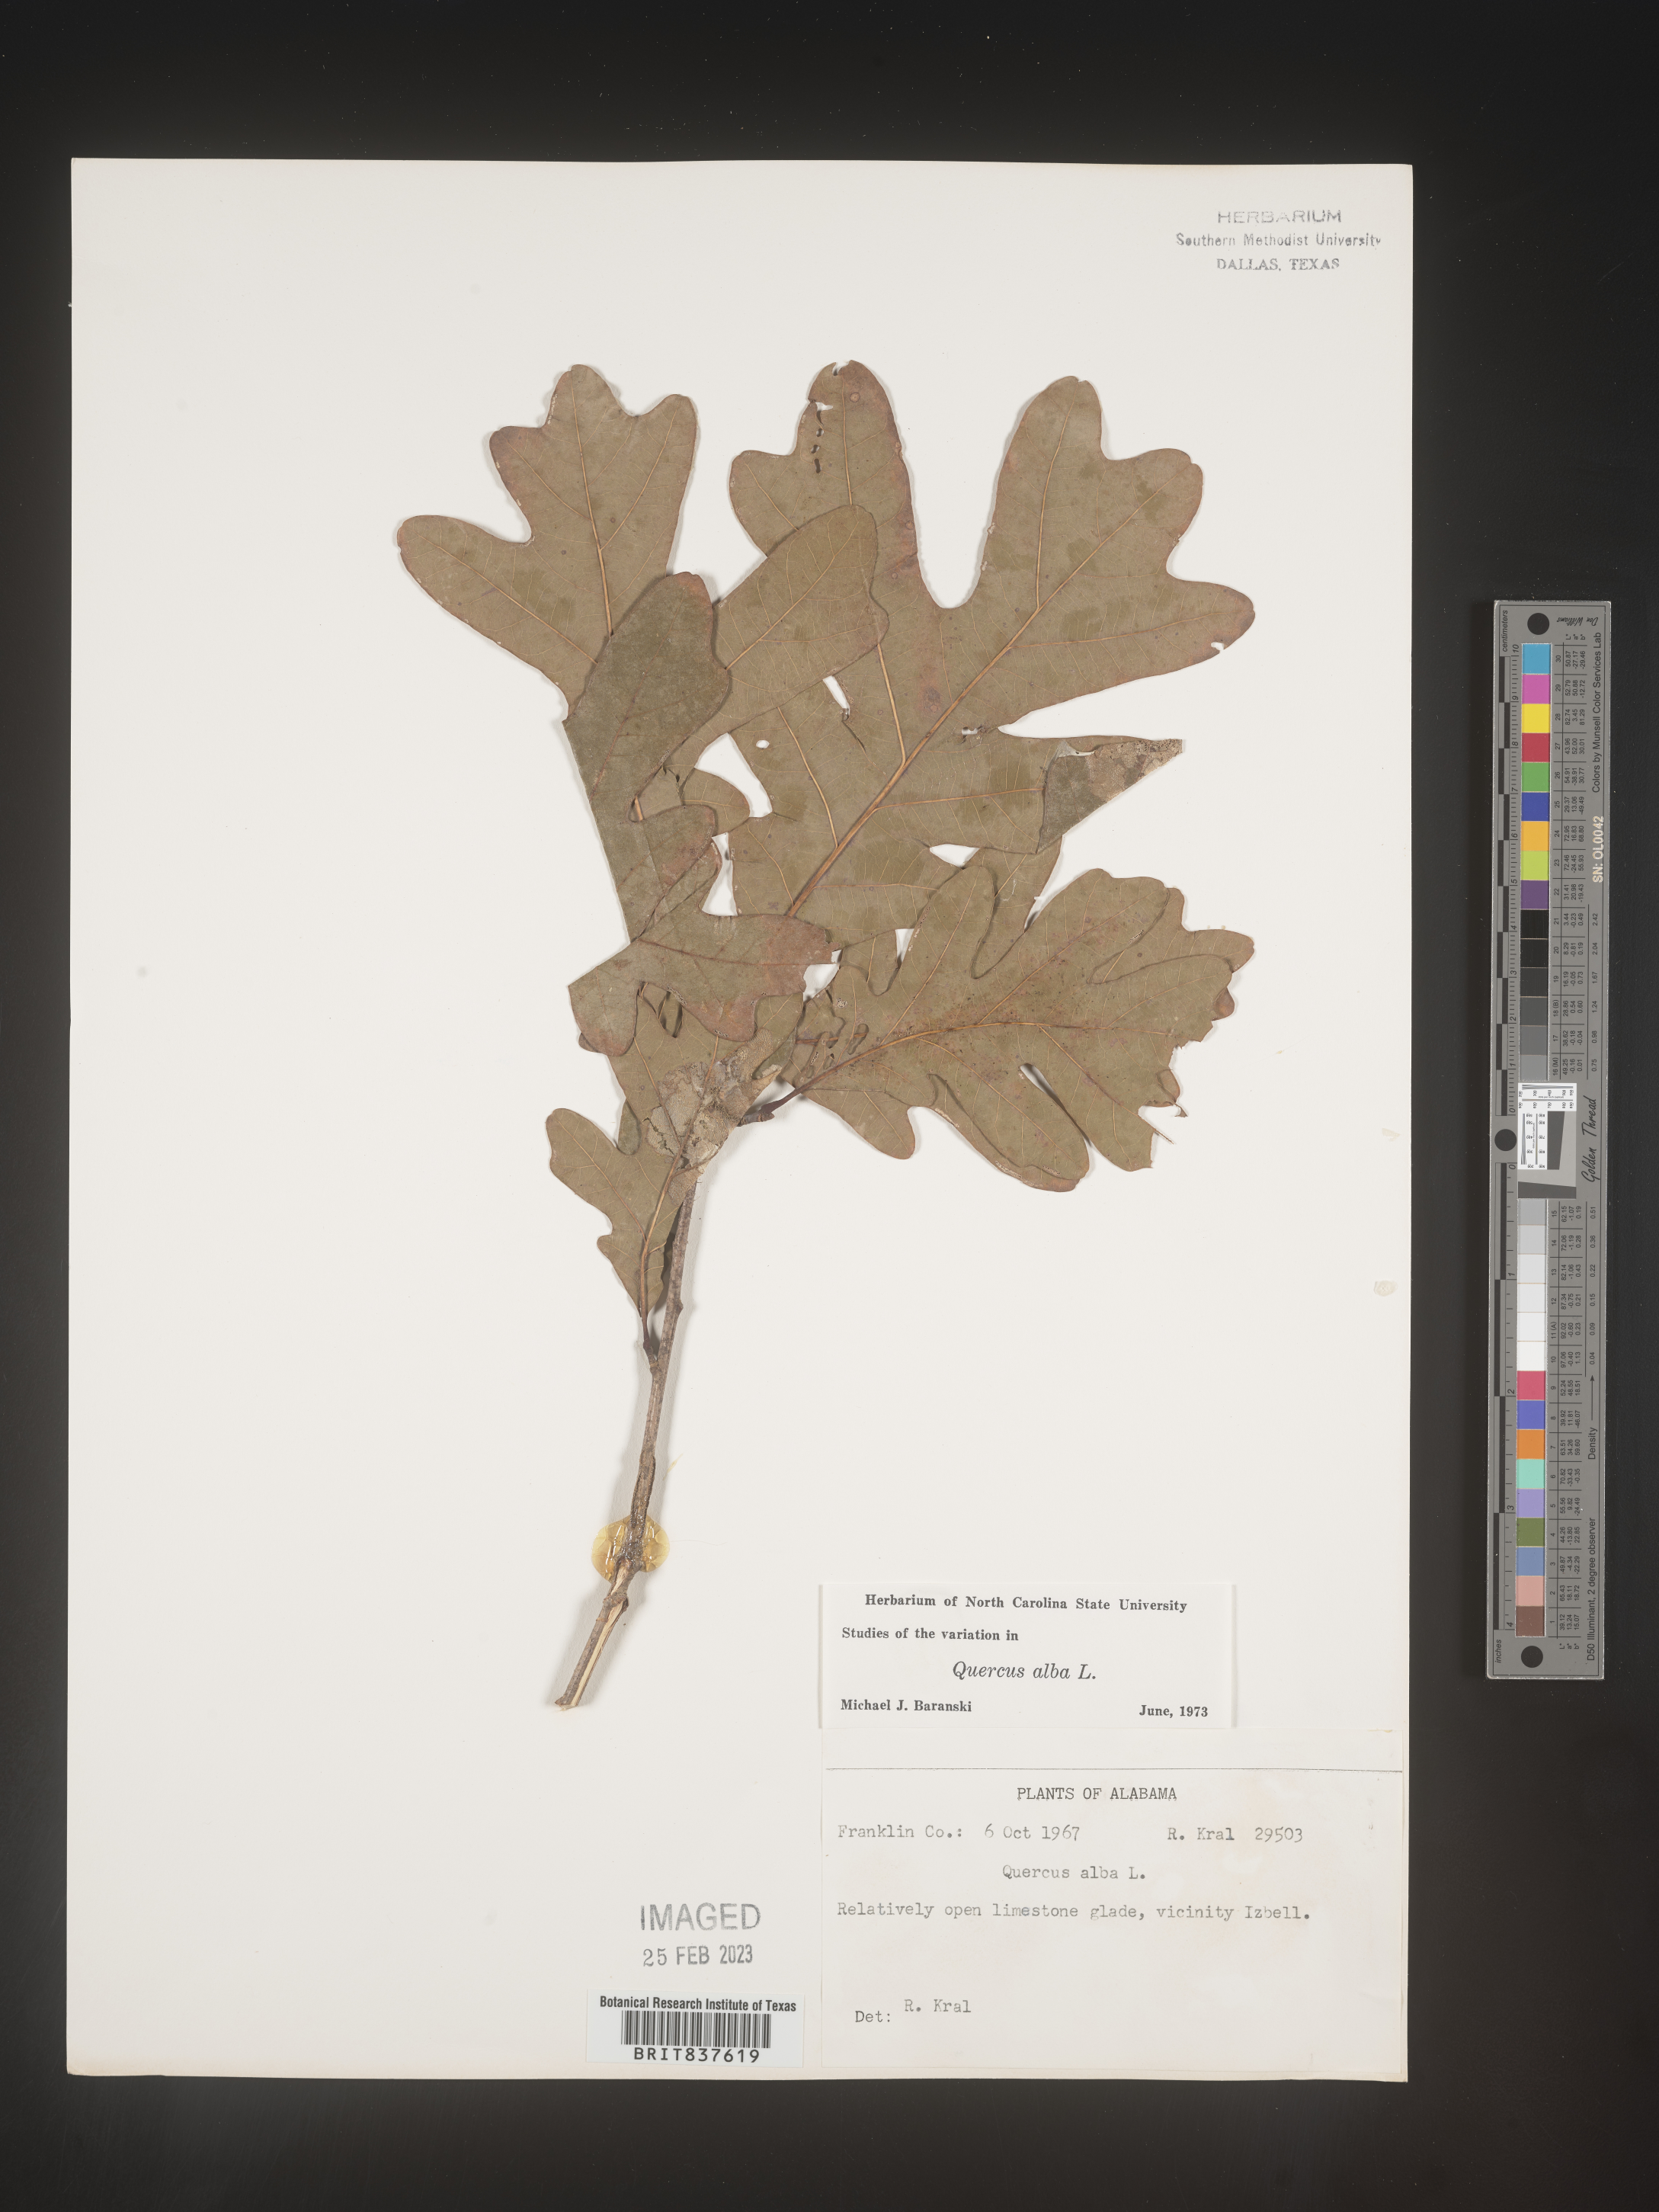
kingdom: Plantae
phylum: Tracheophyta
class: Magnoliopsida
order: Fagales
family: Fagaceae
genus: Quercus
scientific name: Quercus alba
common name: White oak
